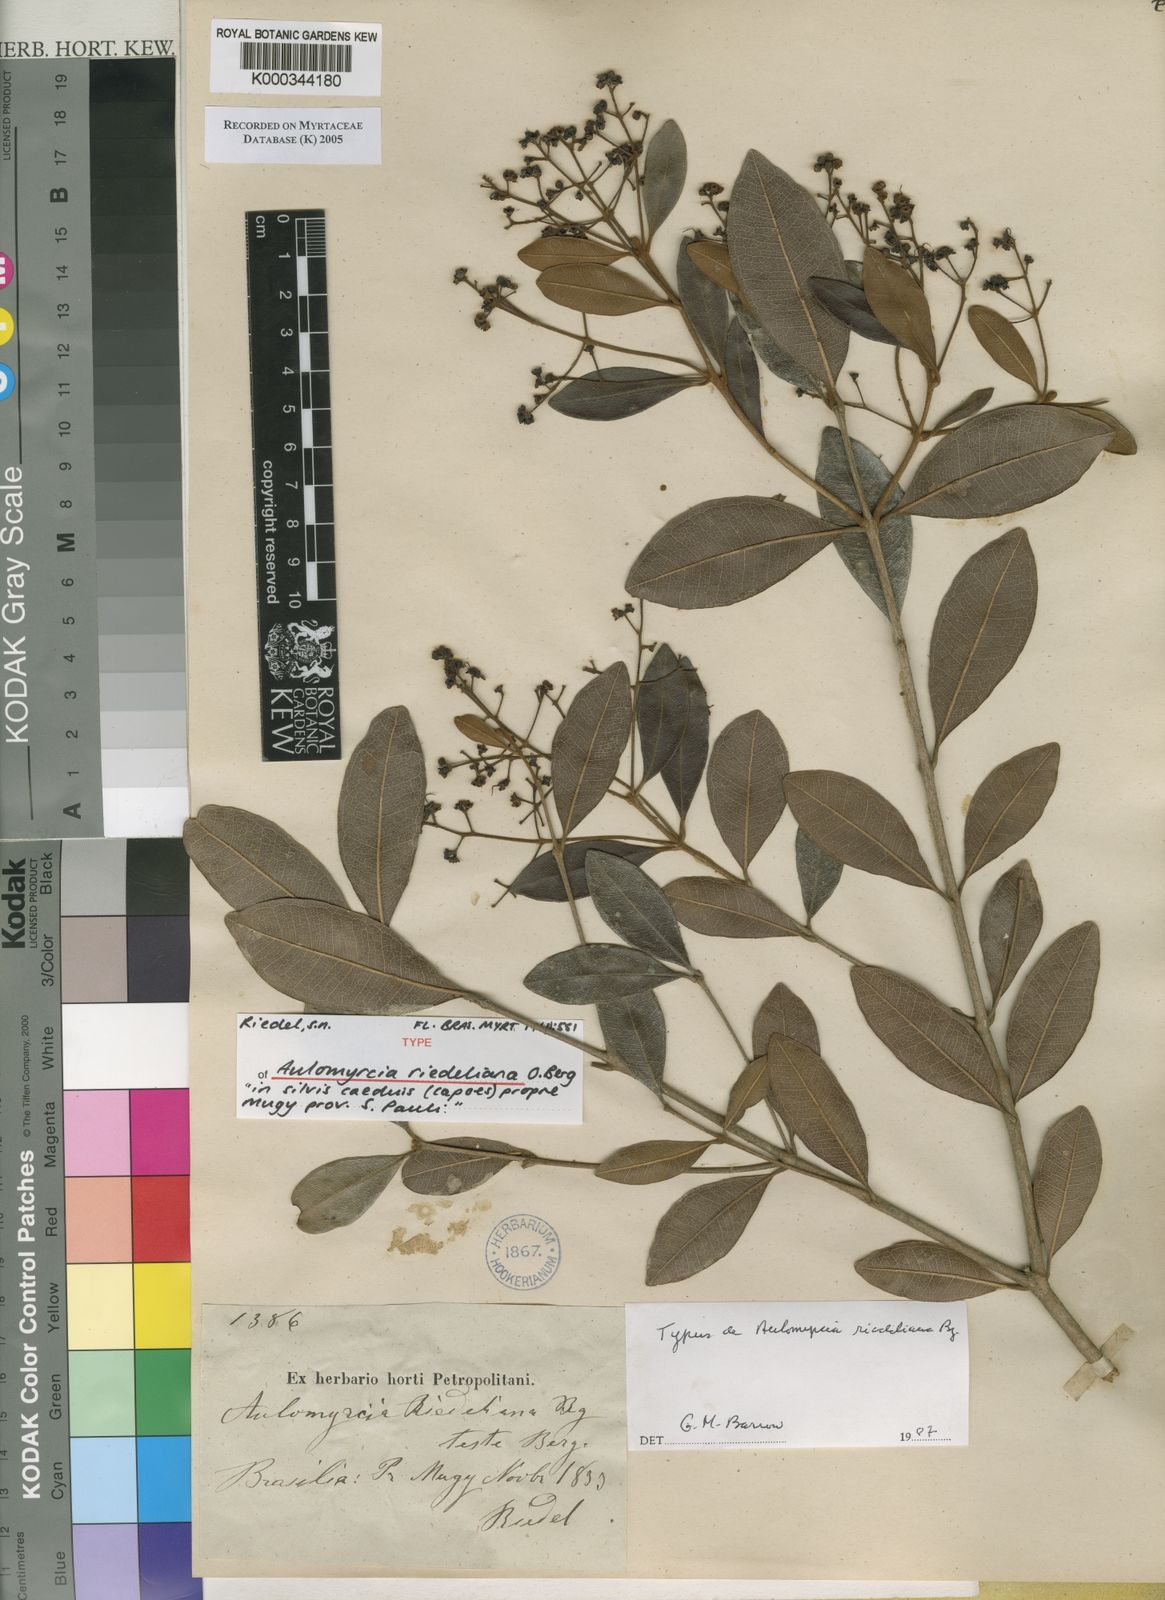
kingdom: Plantae
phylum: Tracheophyta
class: Magnoliopsida
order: Myrtales
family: Myrtaceae
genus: Myrcia
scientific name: Myrcia venulosa
